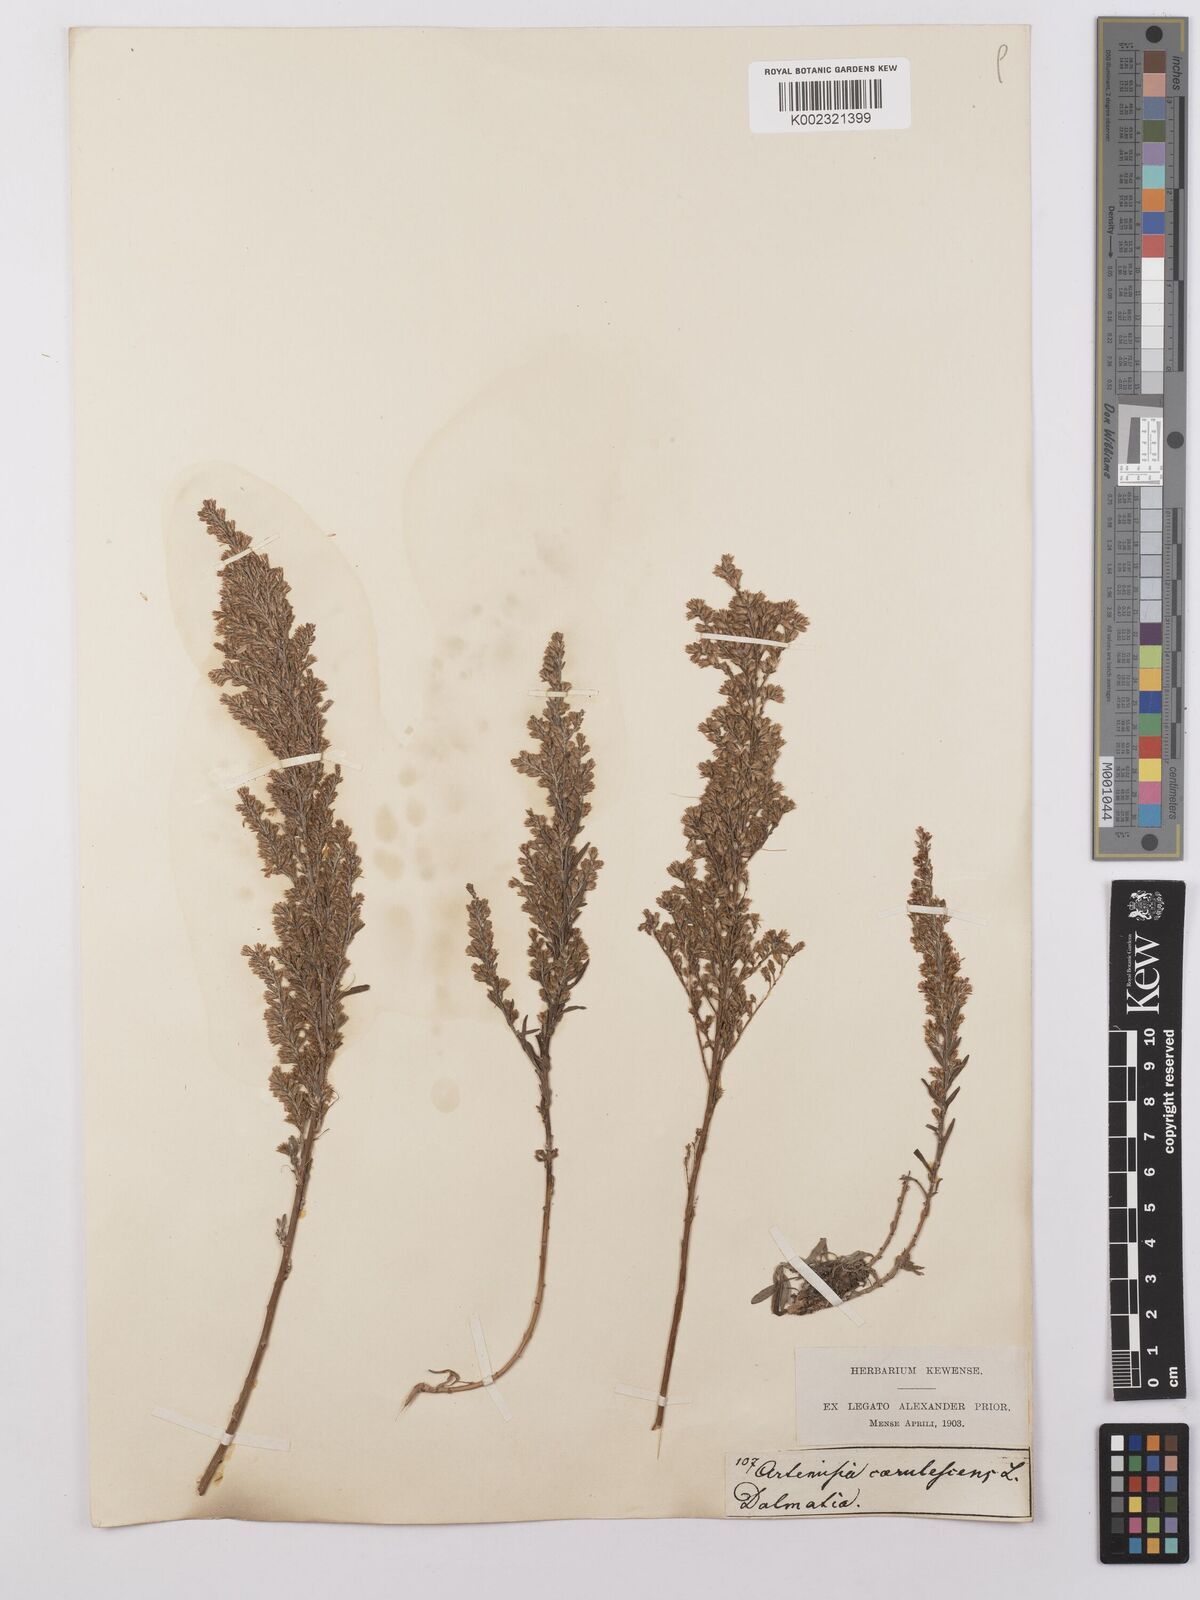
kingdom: Plantae
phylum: Tracheophyta
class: Magnoliopsida
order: Asterales
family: Asteraceae
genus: Artemisia
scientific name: Artemisia caerulescens
